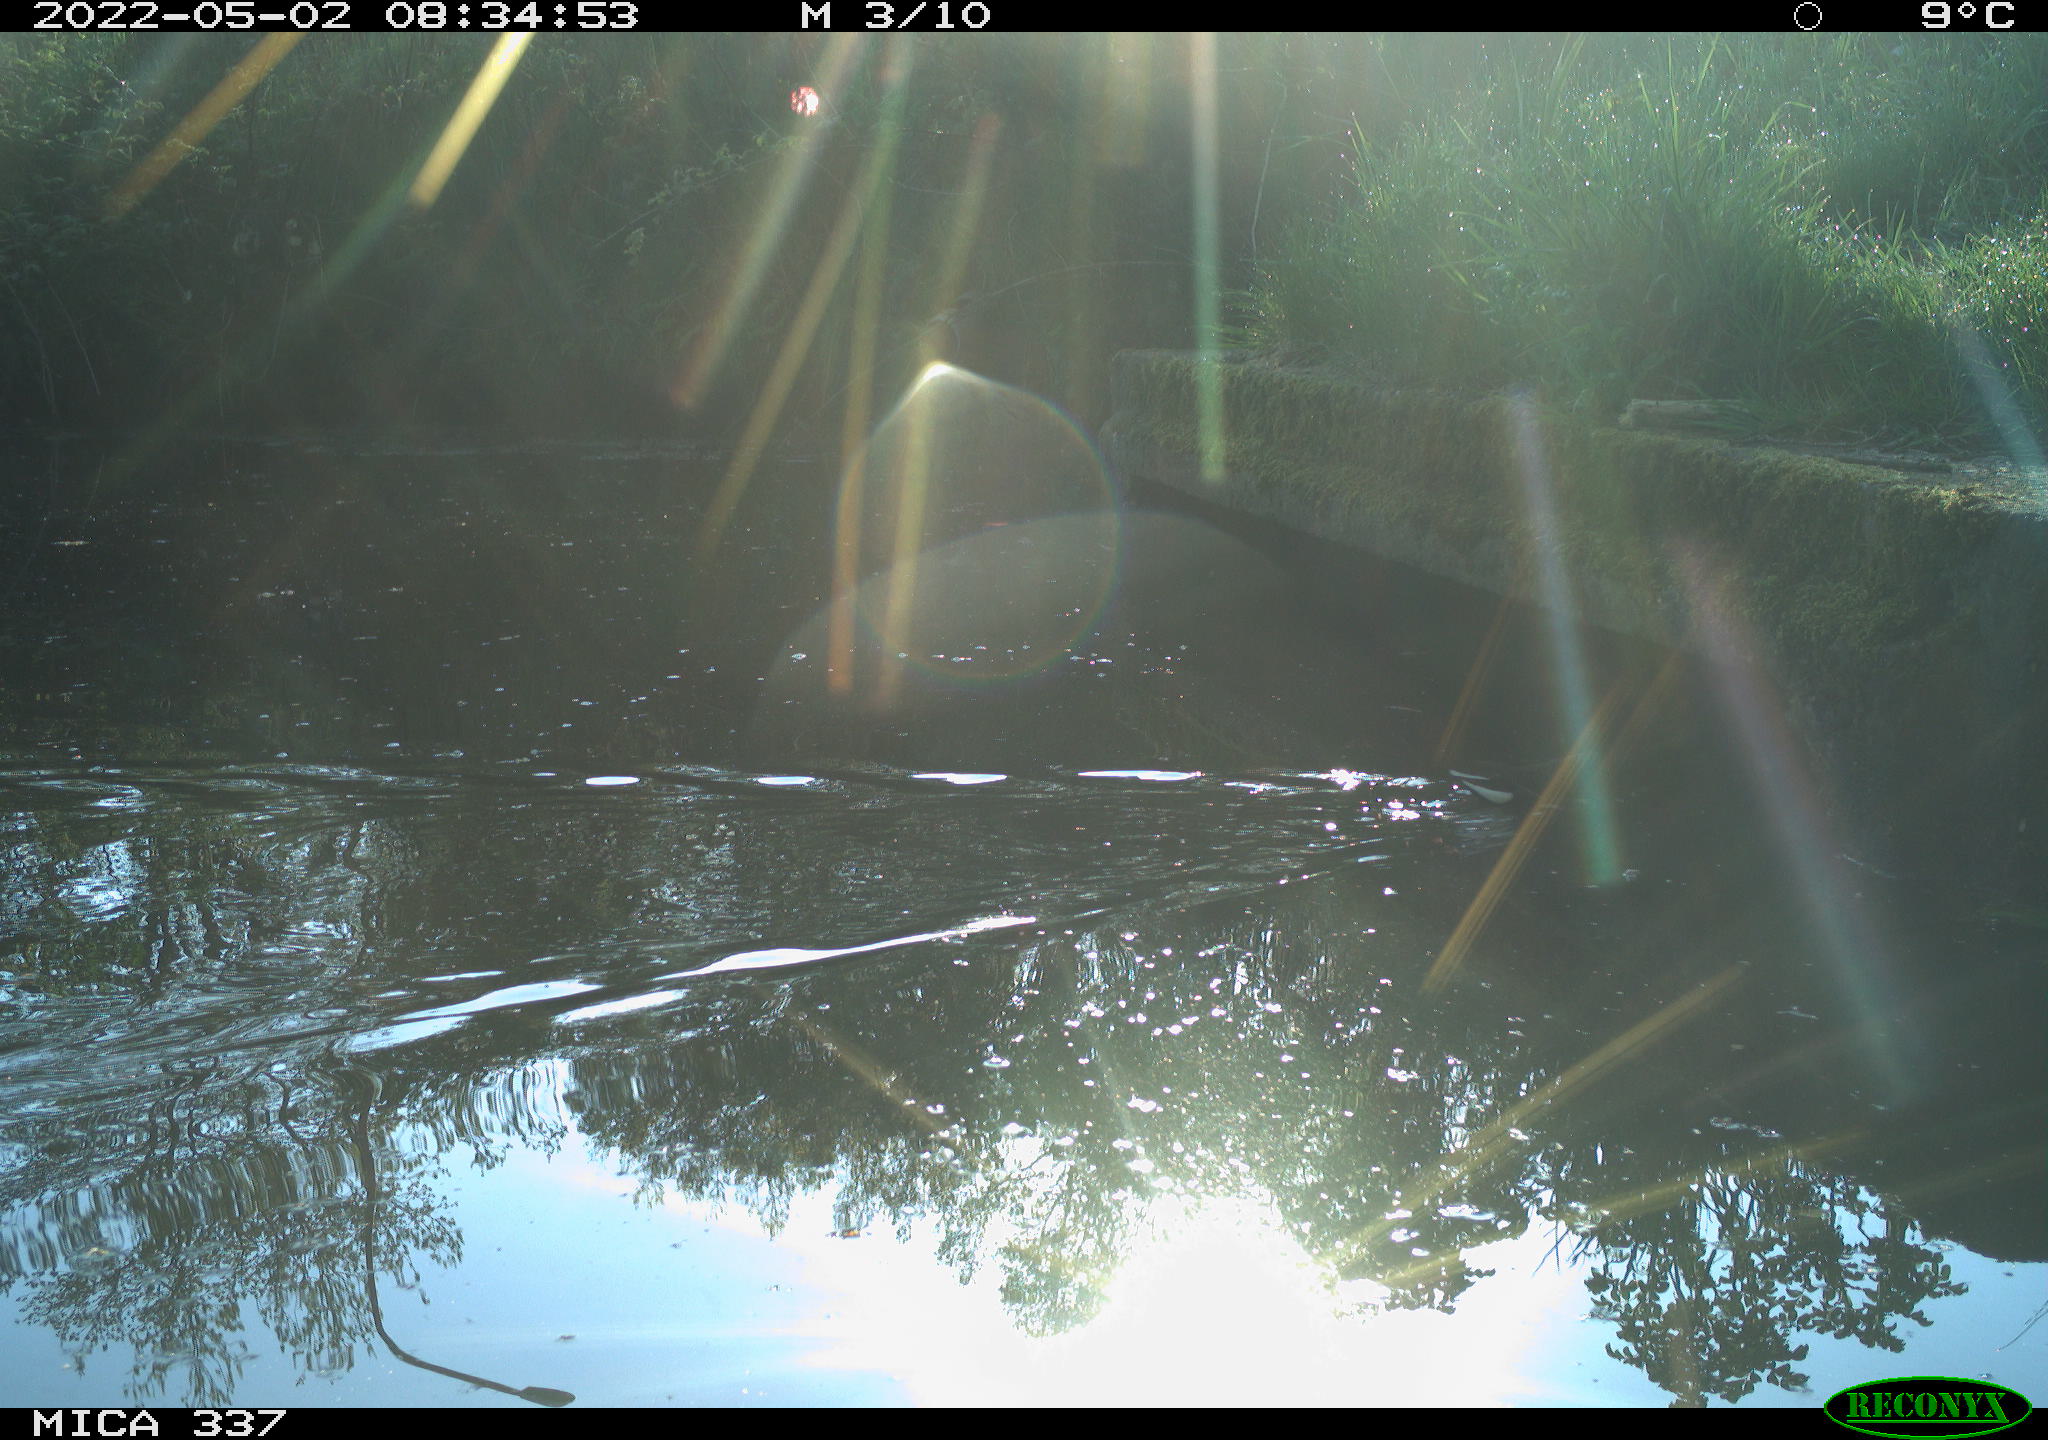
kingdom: Animalia
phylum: Chordata
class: Aves
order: Gruiformes
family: Rallidae
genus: Gallinula
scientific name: Gallinula chloropus
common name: Common moorhen
